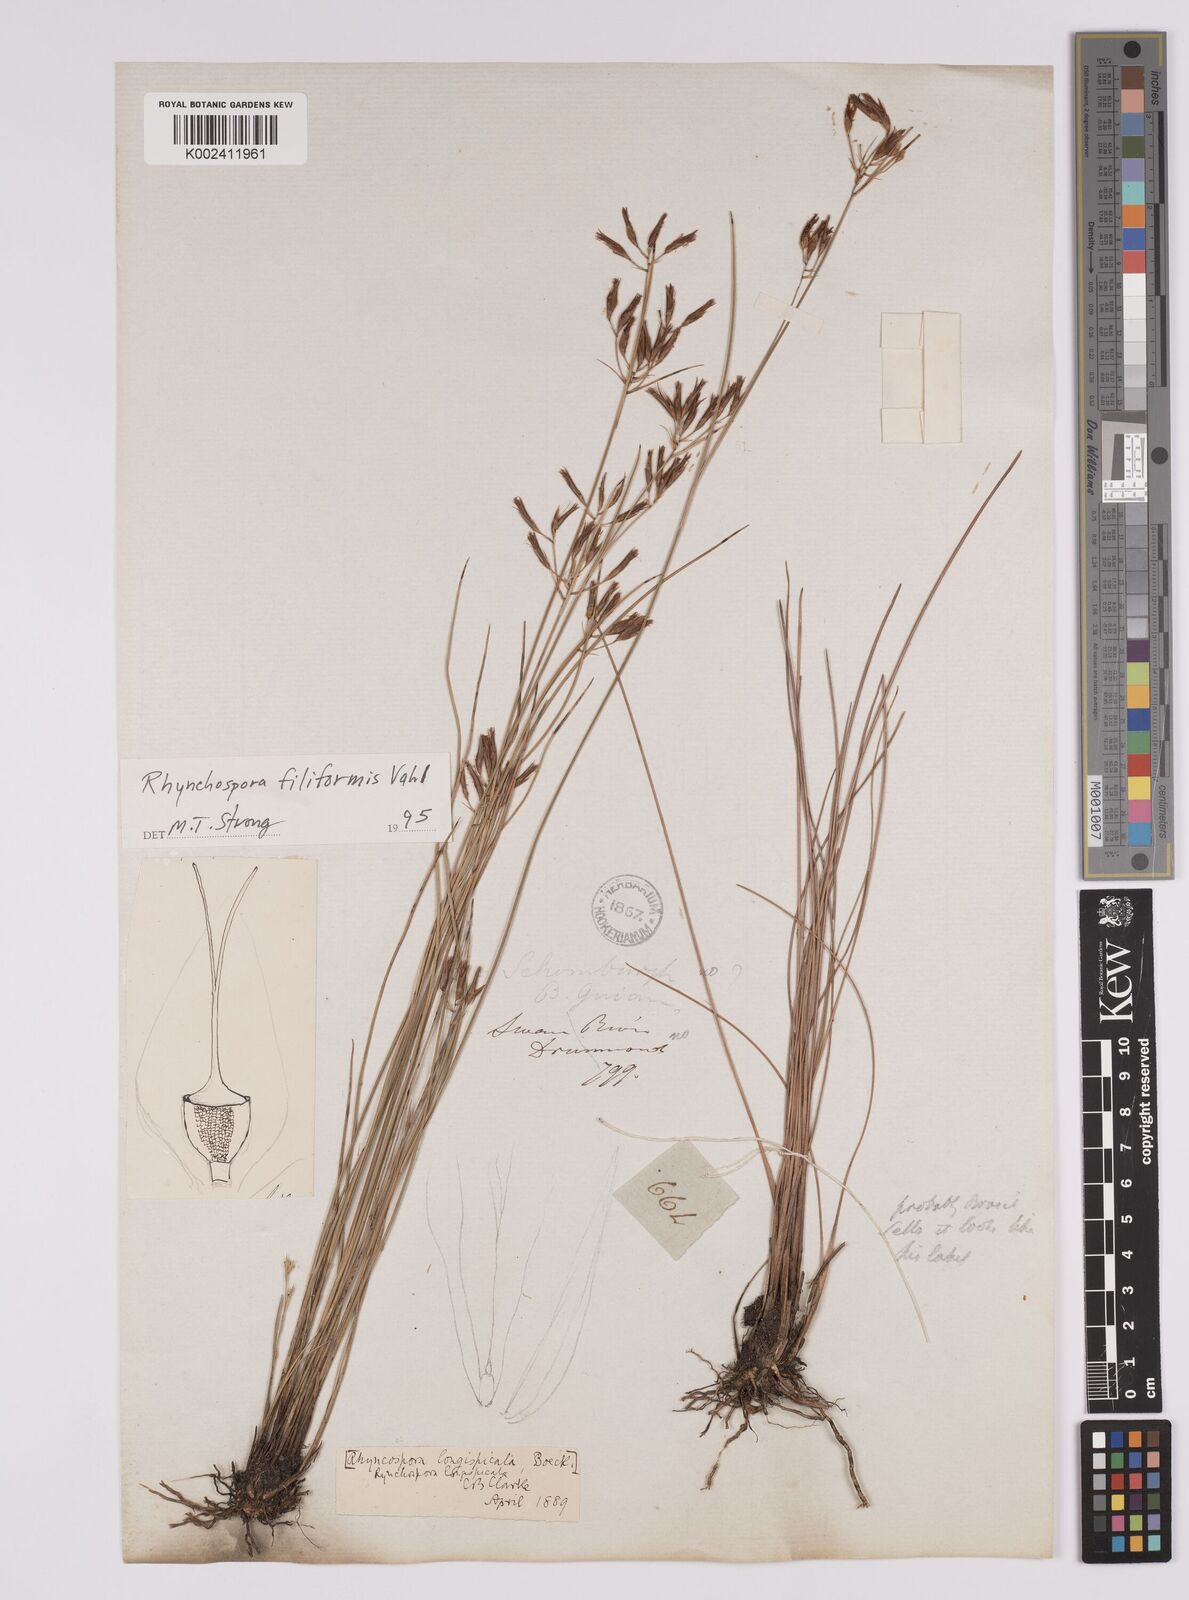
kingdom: Plantae
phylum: Tracheophyta
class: Liliopsida
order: Poales
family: Cyperaceae
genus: Rhynchospora
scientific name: Rhynchospora filiformis
